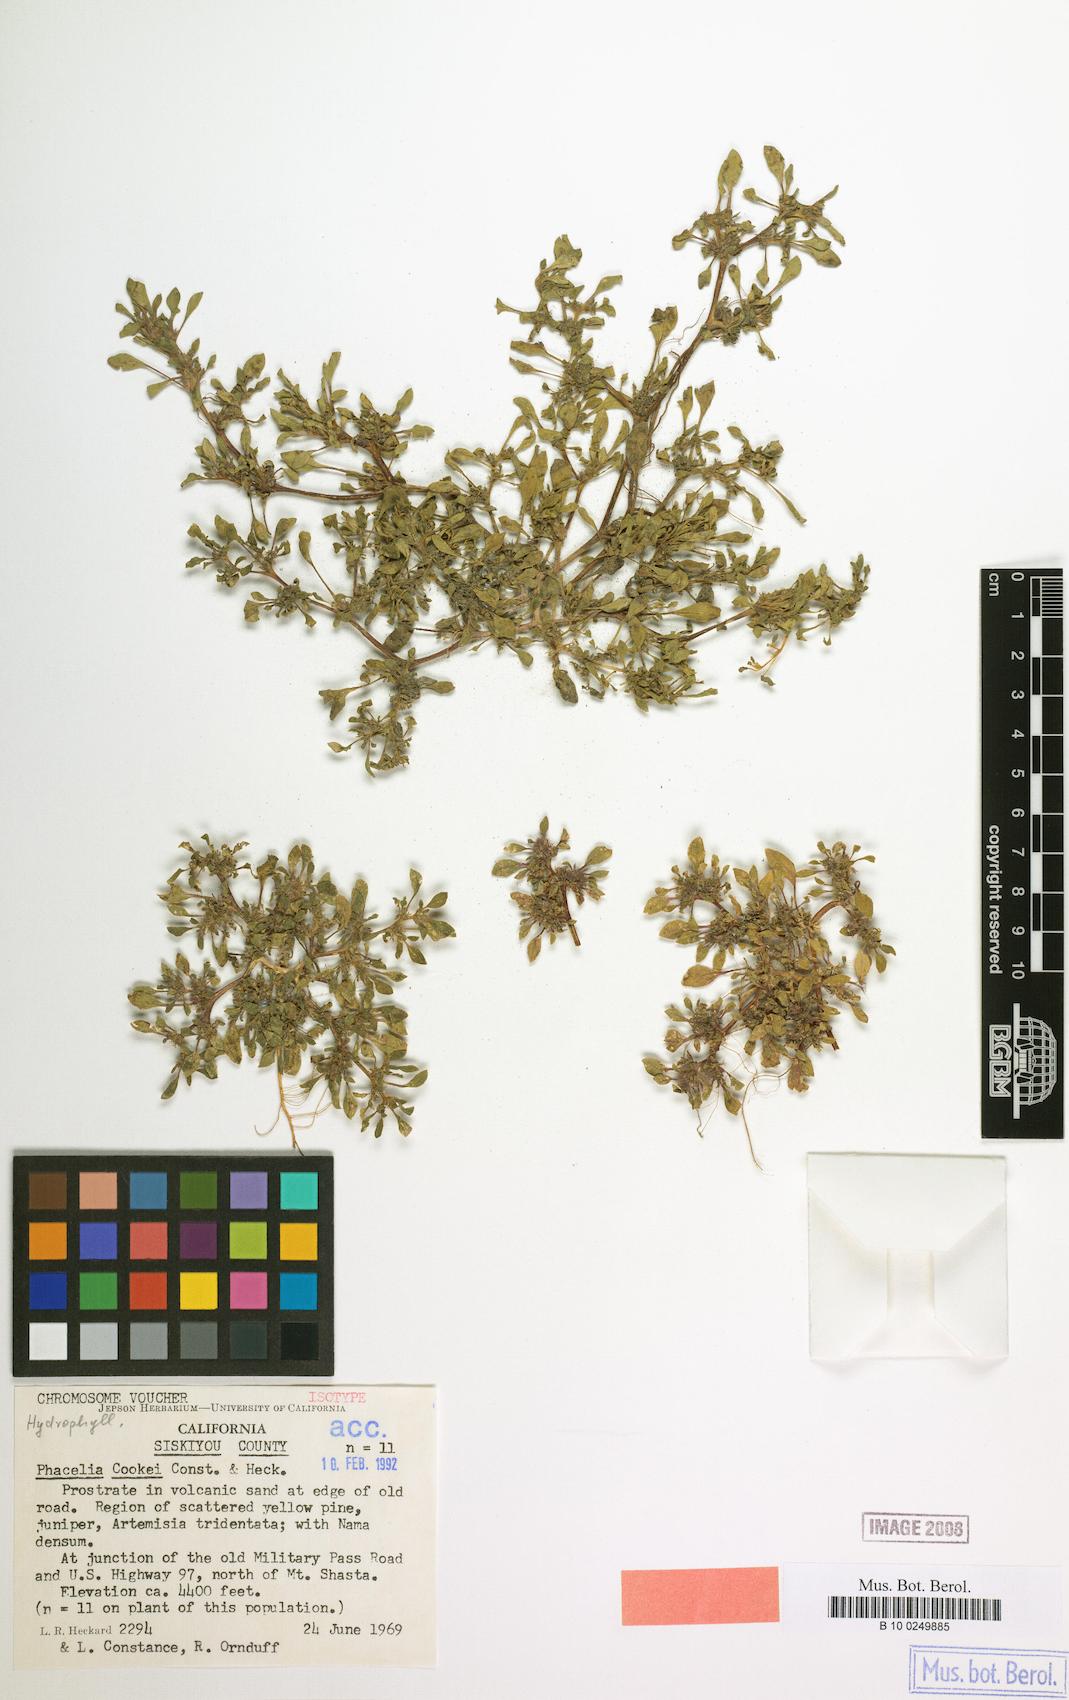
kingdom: Plantae
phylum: Tracheophyta
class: Magnoliopsida
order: Boraginales
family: Hydrophyllaceae
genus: Phacelia
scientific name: Phacelia cookei
